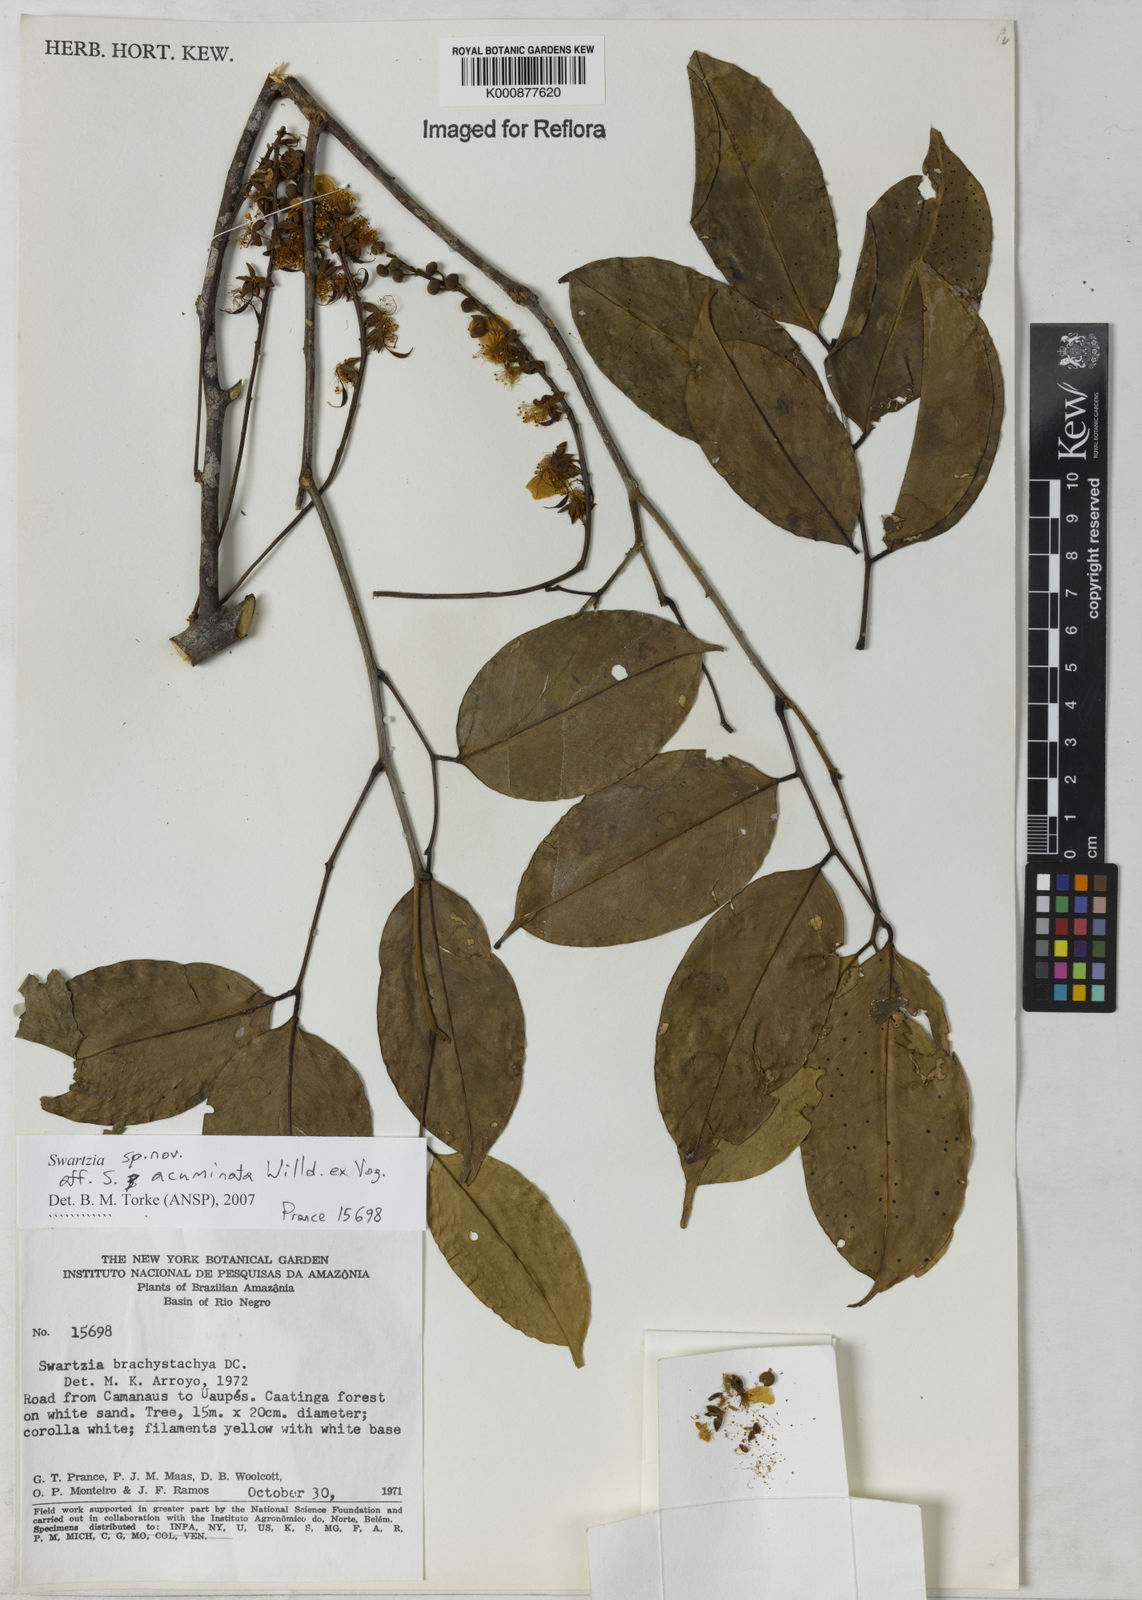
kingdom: Plantae
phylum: Tracheophyta
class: Magnoliopsida
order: Fabales
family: Fabaceae
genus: Swartzia
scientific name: Swartzia acuminata
